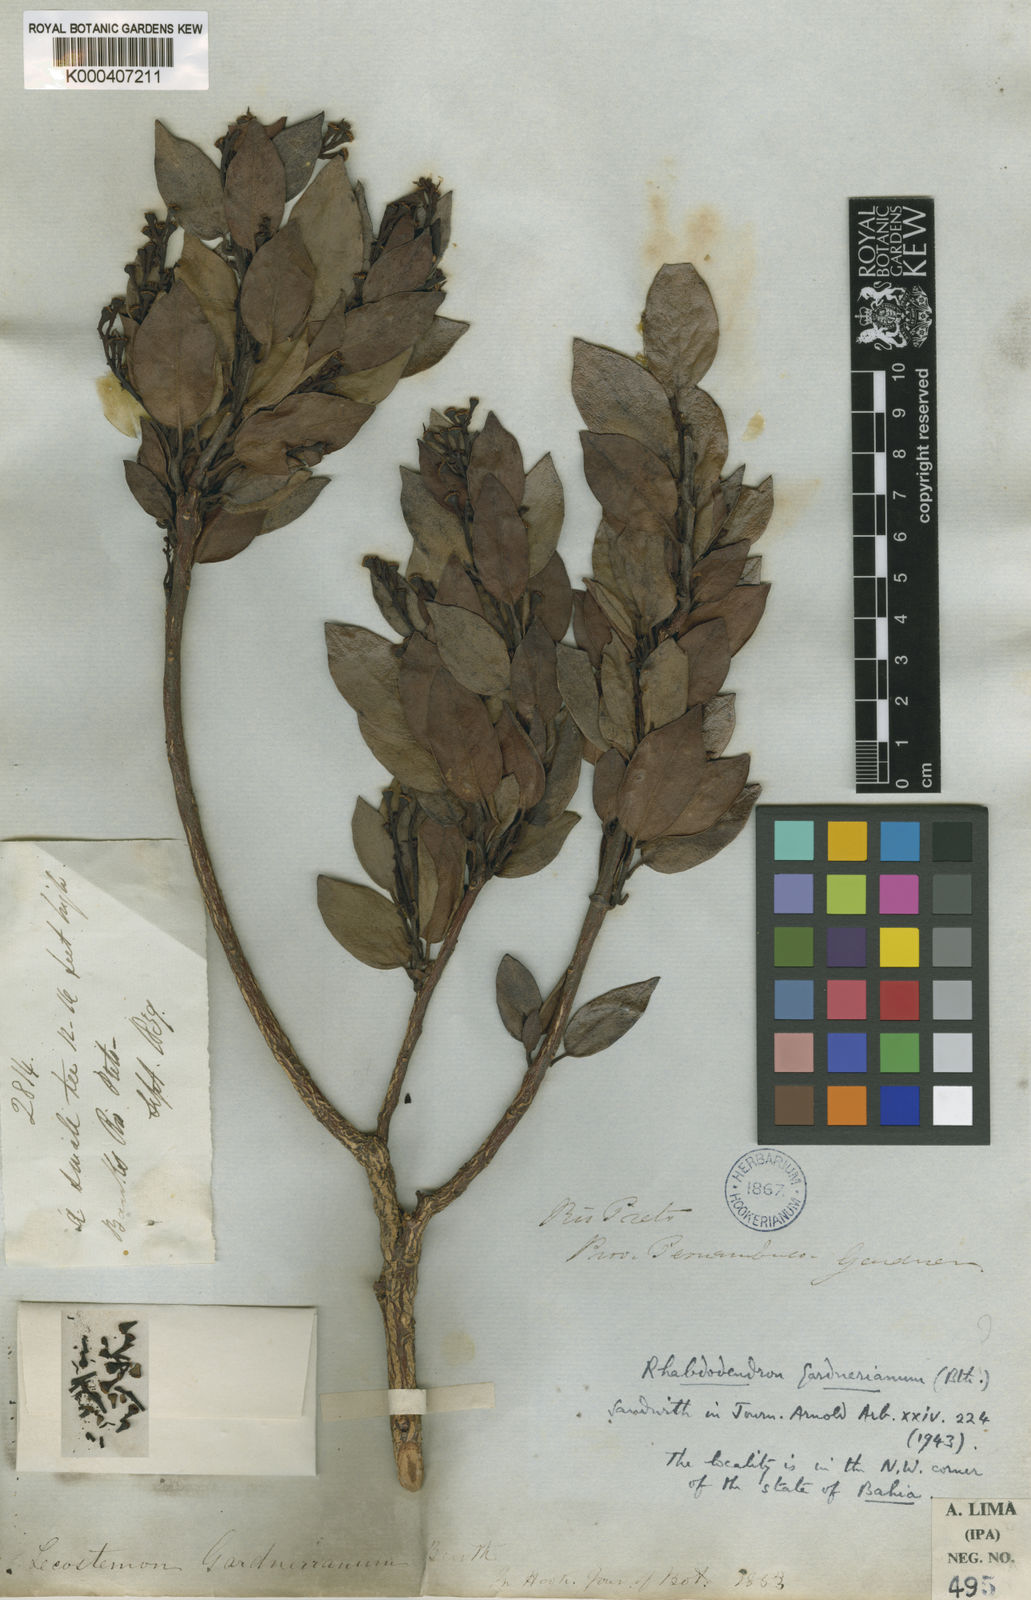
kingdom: Plantae
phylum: Tracheophyta
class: Magnoliopsida
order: Caryophyllales
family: Rhabdodendraceae
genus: Rhabdodendron
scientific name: Rhabdodendron gardnerianum
